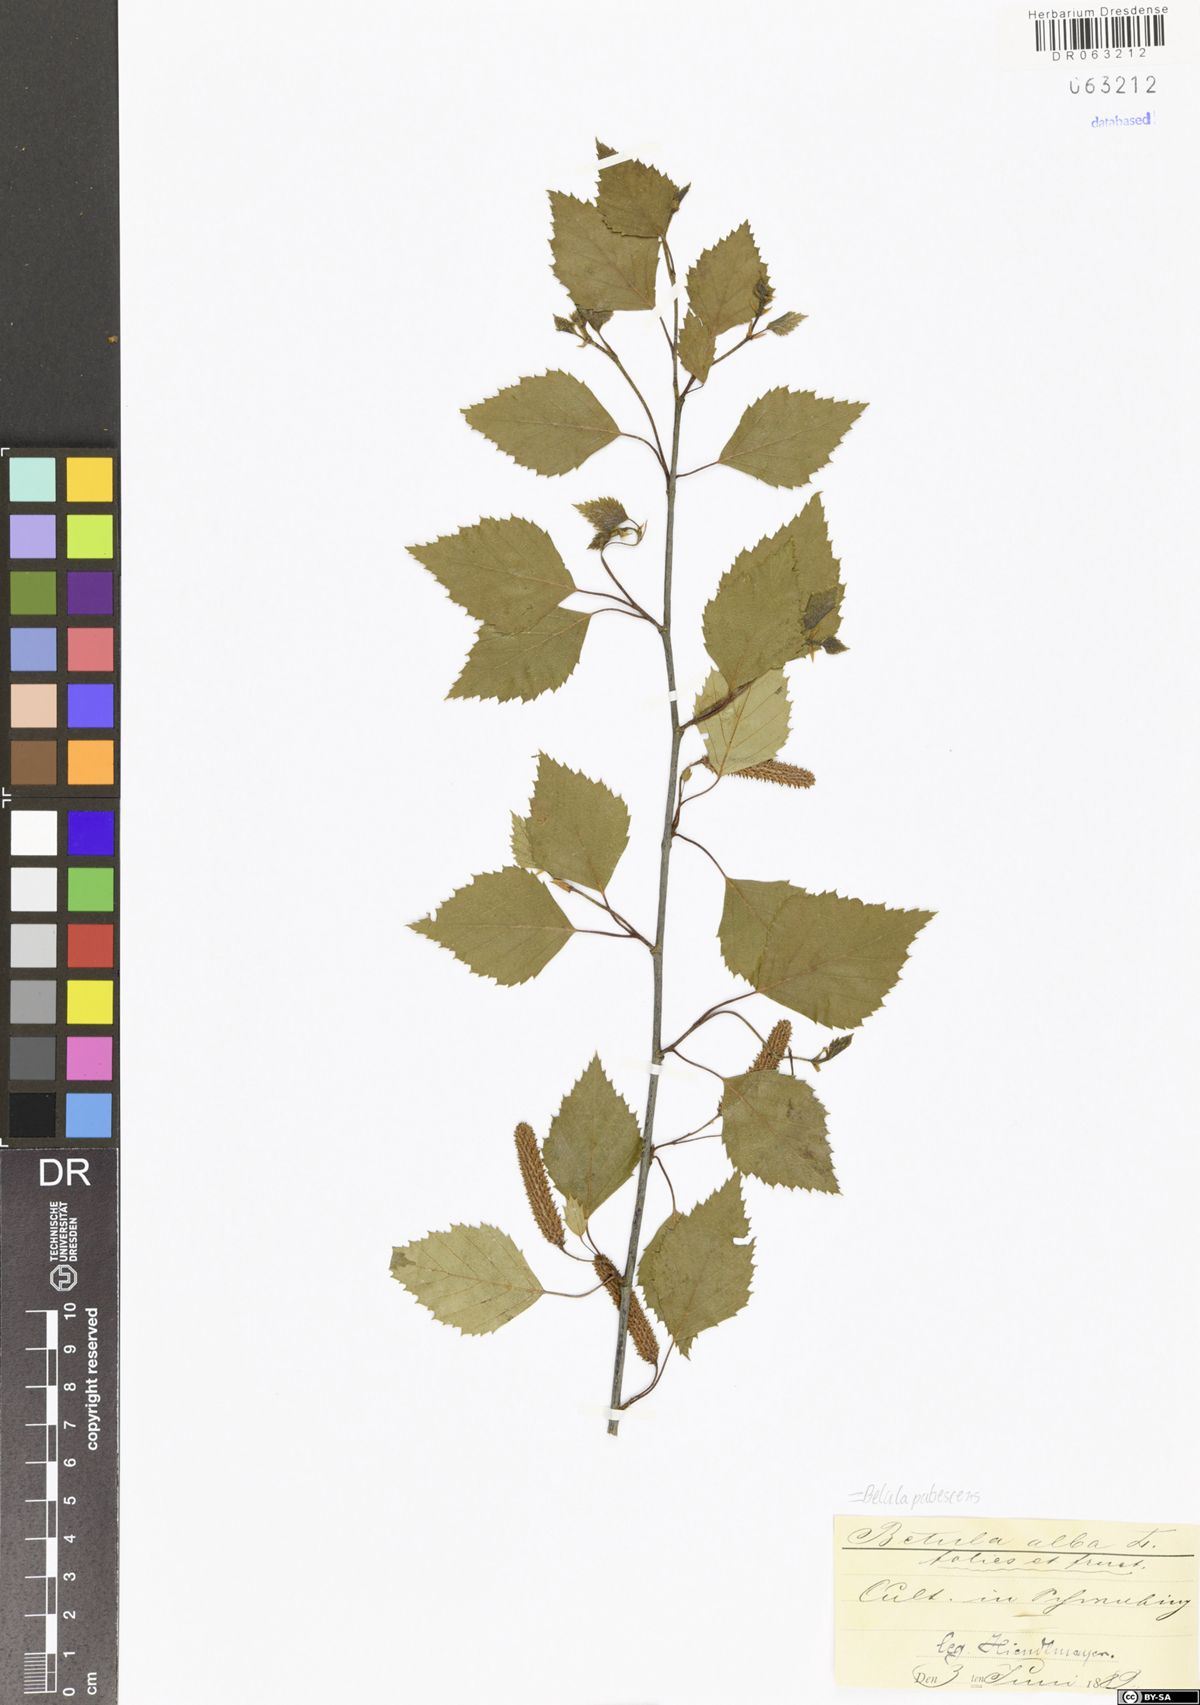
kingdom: Plantae
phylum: Tracheophyta
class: Magnoliopsida
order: Fagales
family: Betulaceae
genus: Betula
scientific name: Betula pubescens
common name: Downy birch
